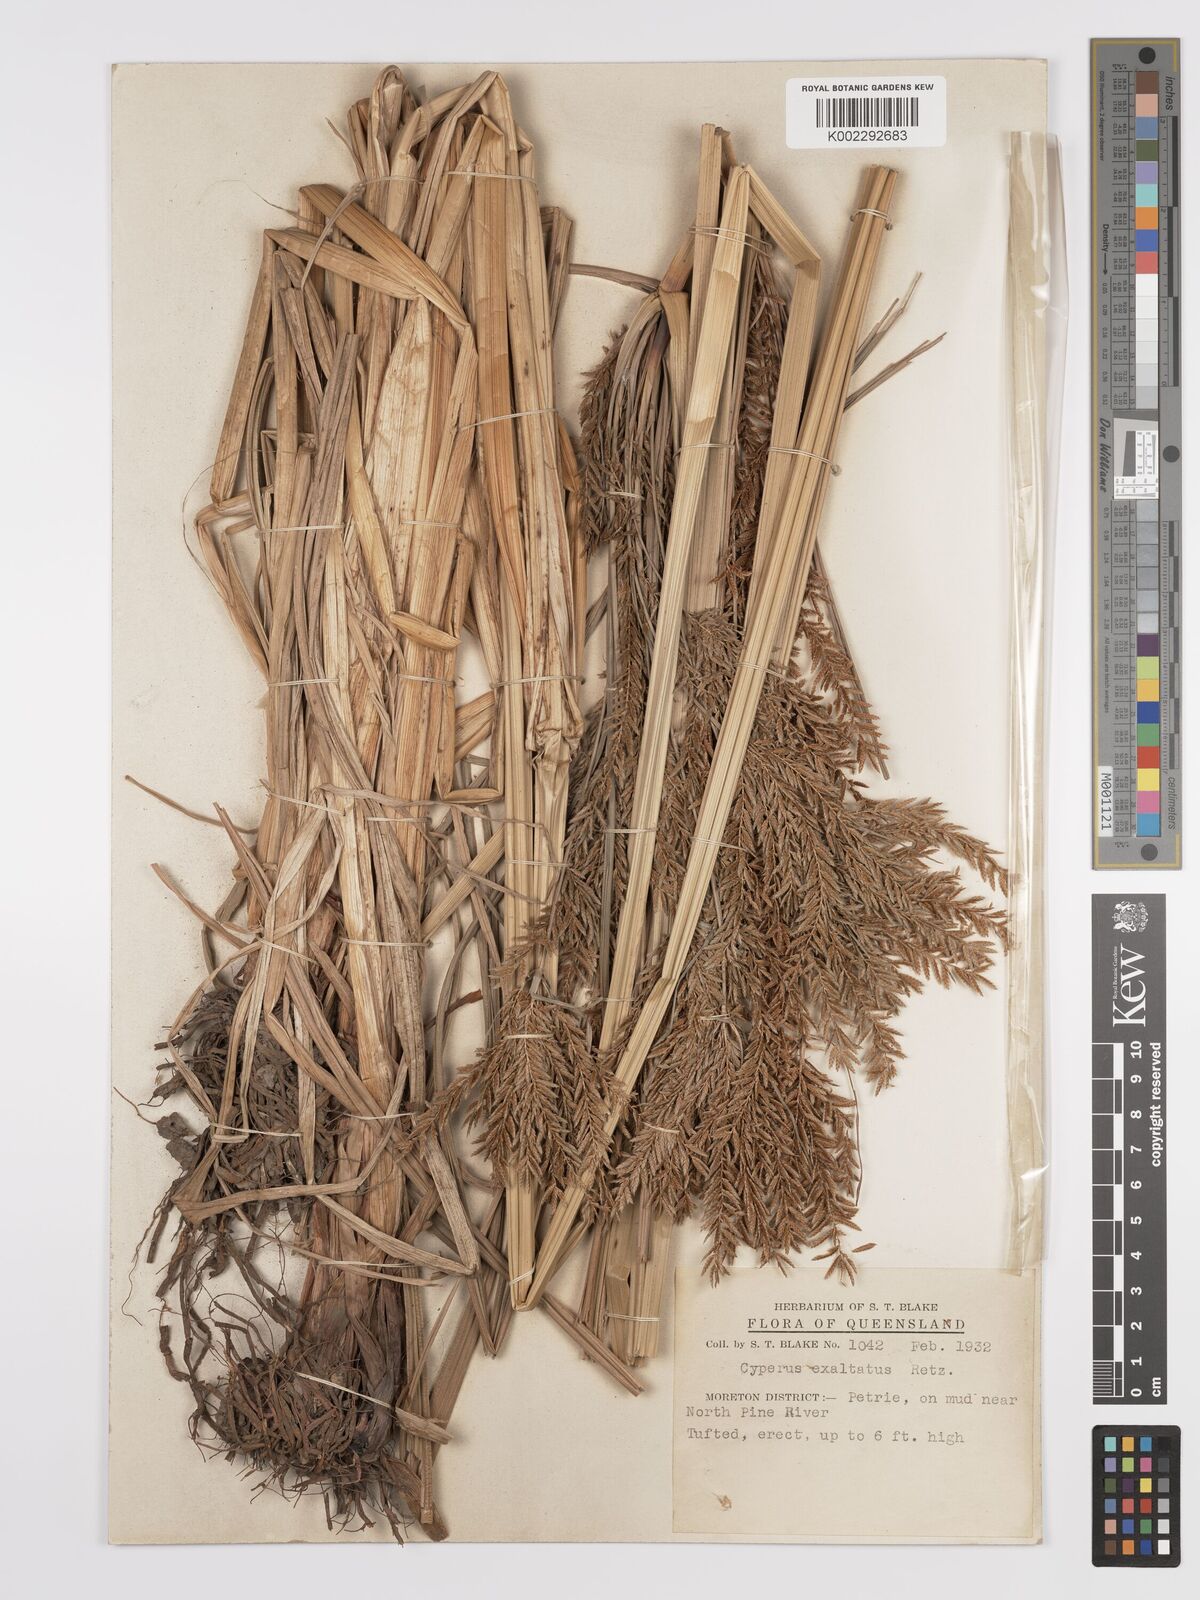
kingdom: Plantae
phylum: Tracheophyta
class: Liliopsida
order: Poales
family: Cyperaceae
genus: Cyperus
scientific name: Cyperus exaltatus
